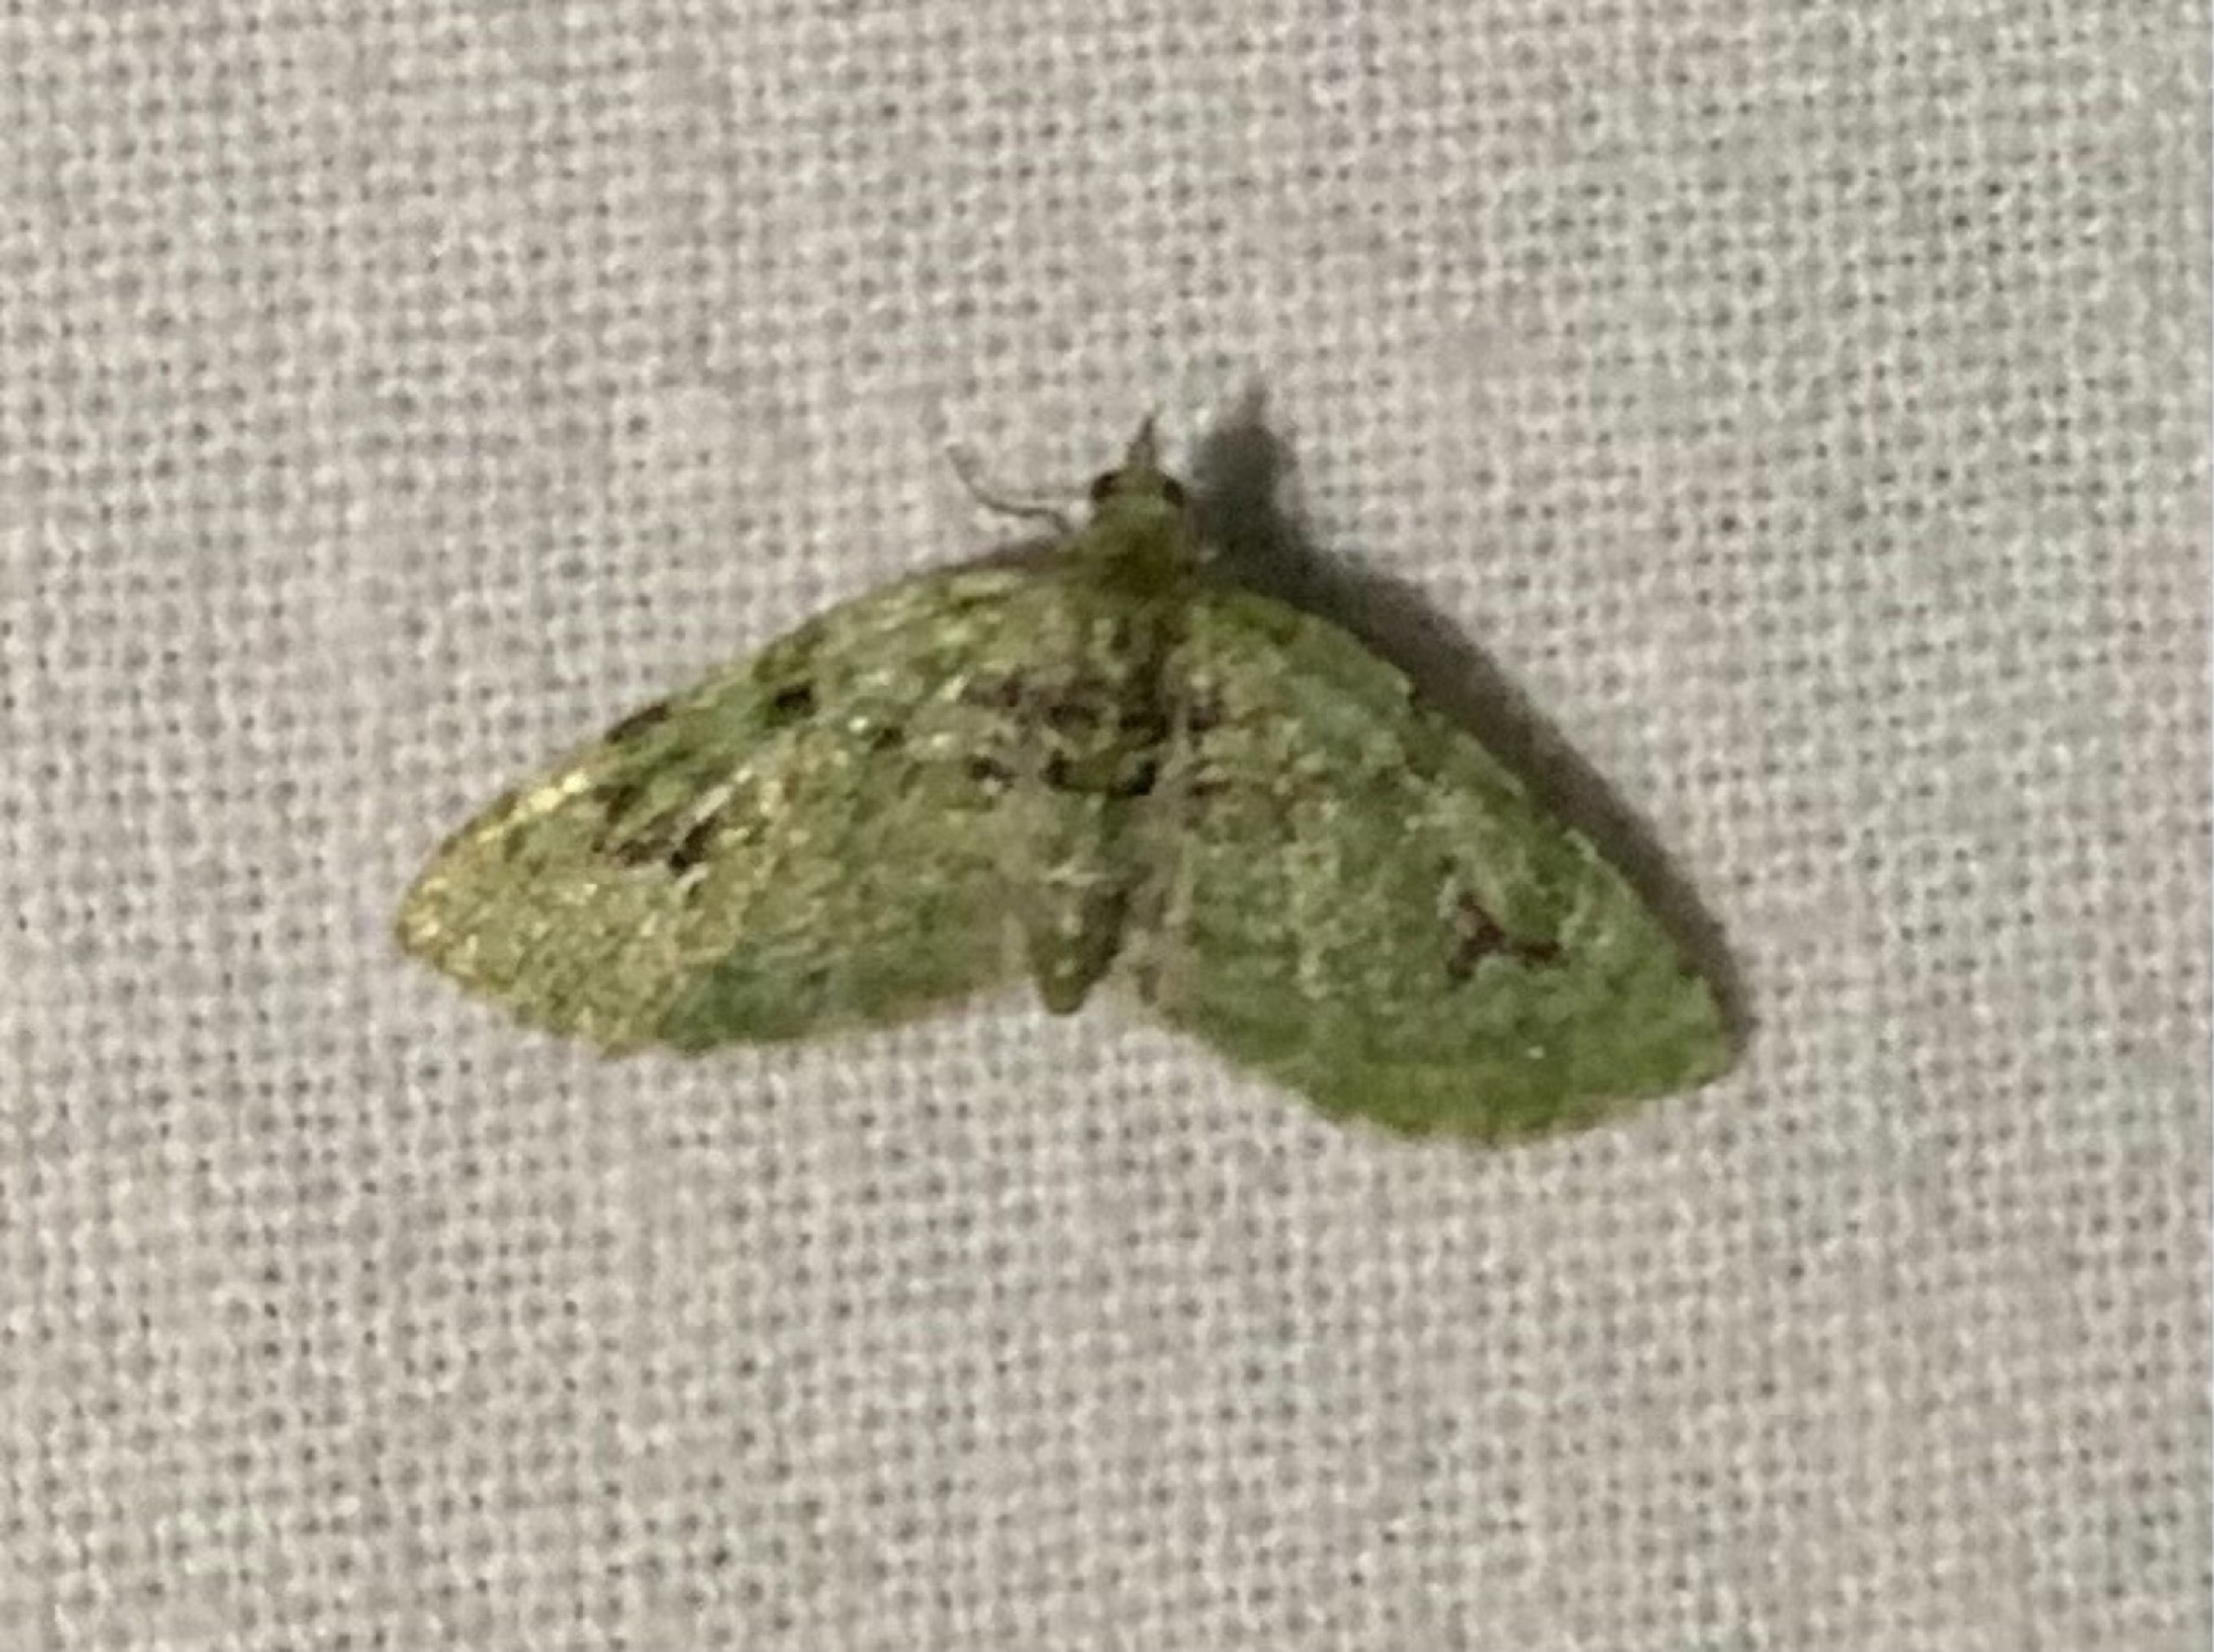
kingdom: Animalia
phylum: Arthropoda
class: Insecta
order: Lepidoptera
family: Geometridae
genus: Chloroclystis
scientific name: Chloroclystis v-ata
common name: V-dværgmåler
